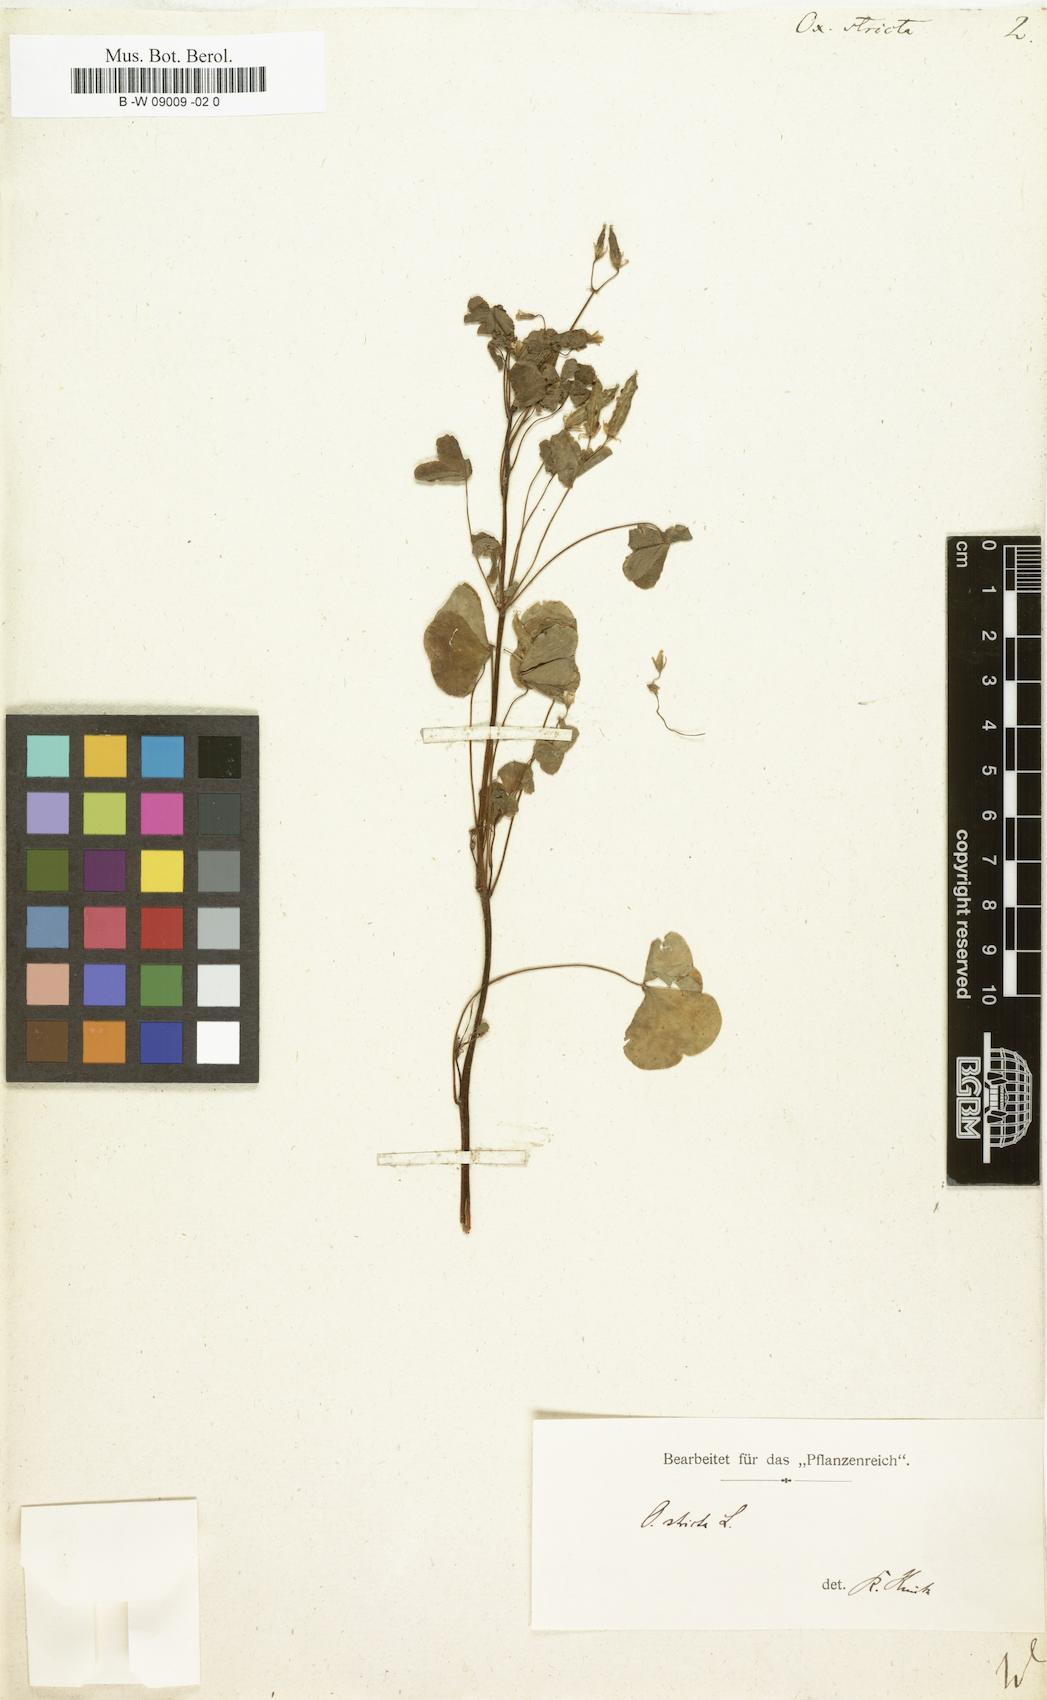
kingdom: Plantae
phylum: Tracheophyta
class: Magnoliopsida
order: Oxalidales
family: Oxalidaceae
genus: Oxalis
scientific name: Oxalis stricta
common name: Upright yellow-sorrel
